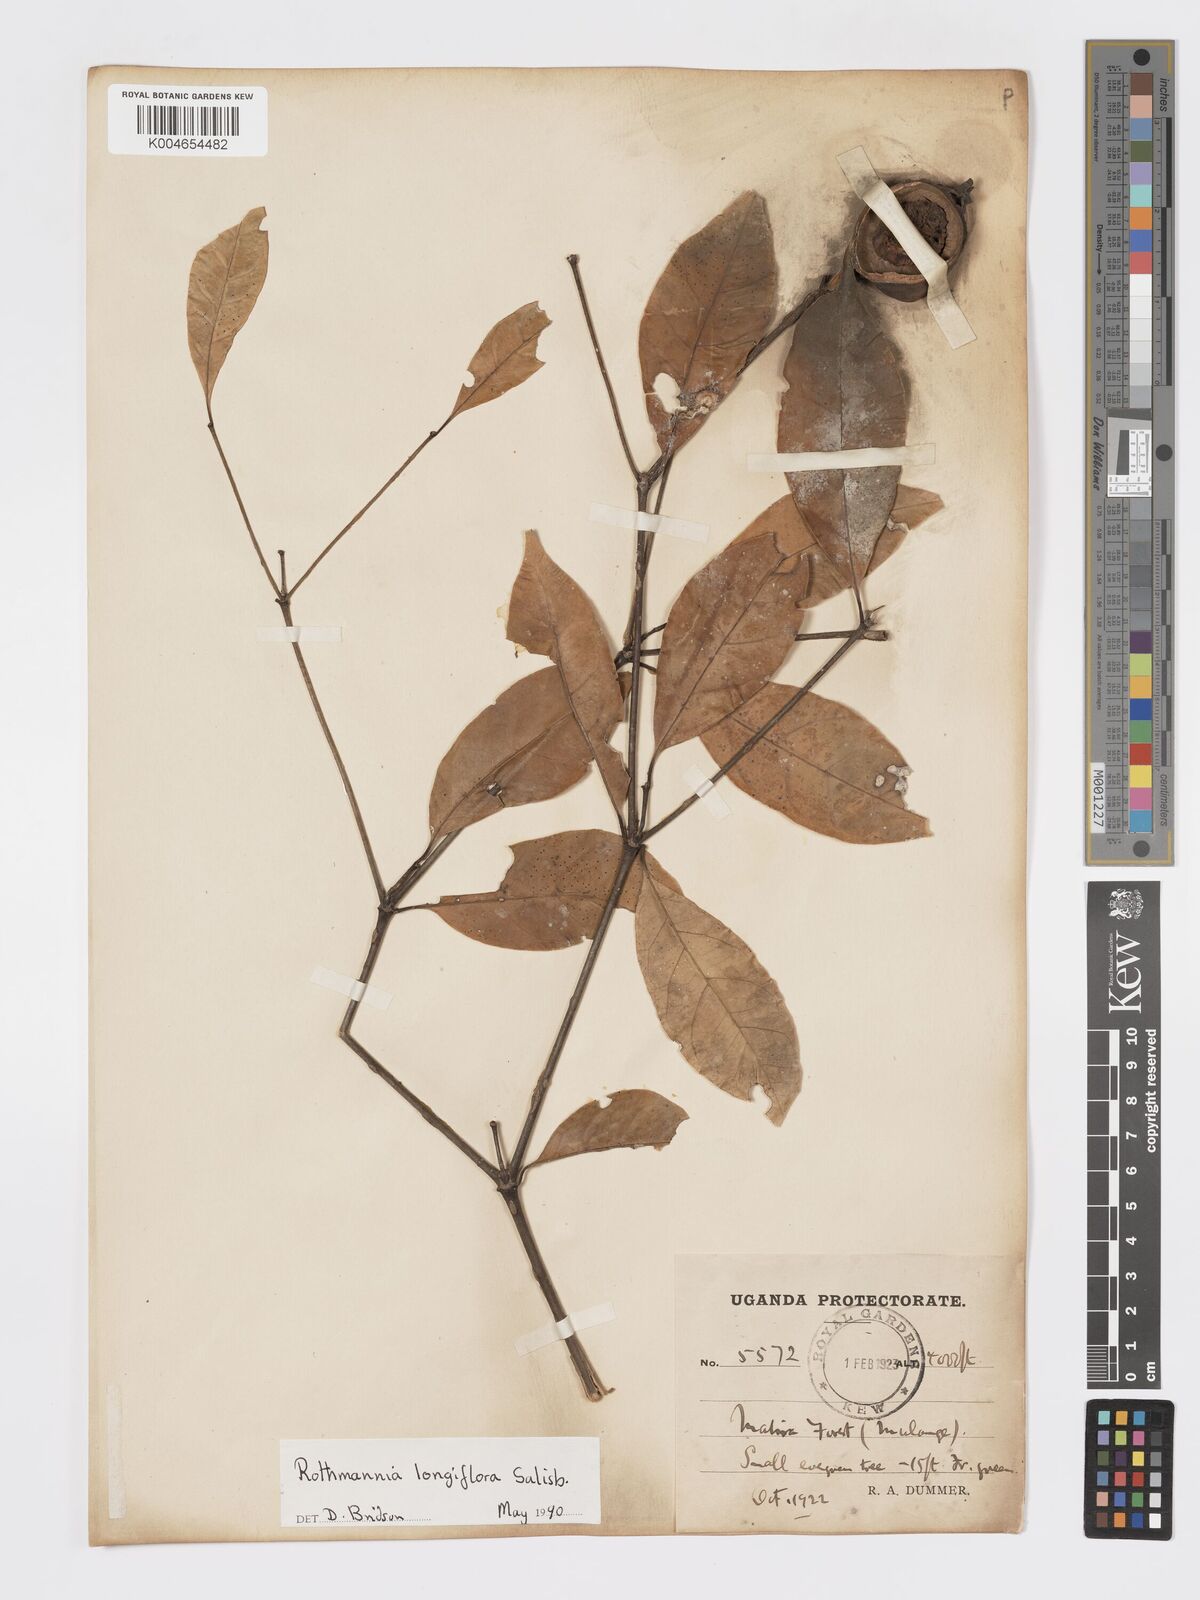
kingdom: Plantae
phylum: Tracheophyta
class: Magnoliopsida
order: Gentianales
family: Rubiaceae
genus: Rothmannia
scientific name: Rothmannia longiflora
